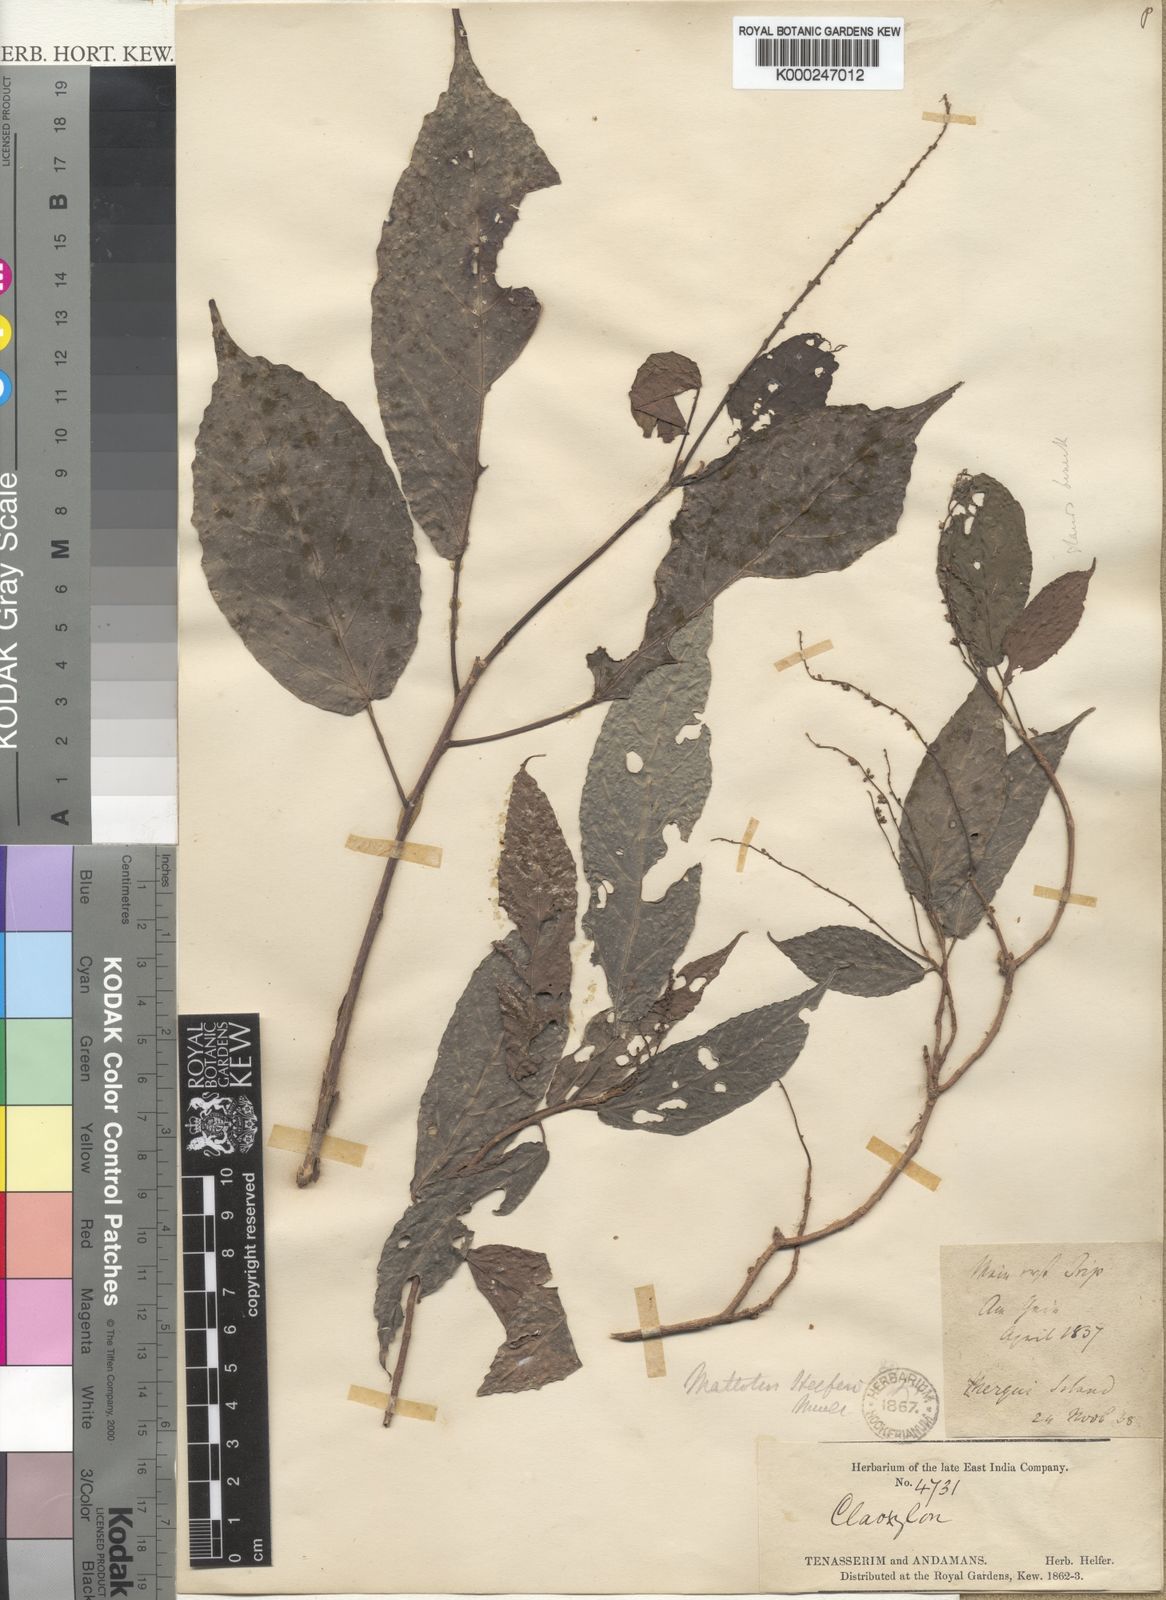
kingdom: Plantae
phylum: Tracheophyta
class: Magnoliopsida
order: Malpighiales
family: Euphorbiaceae
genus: Mallotus
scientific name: Mallotus peltatus
